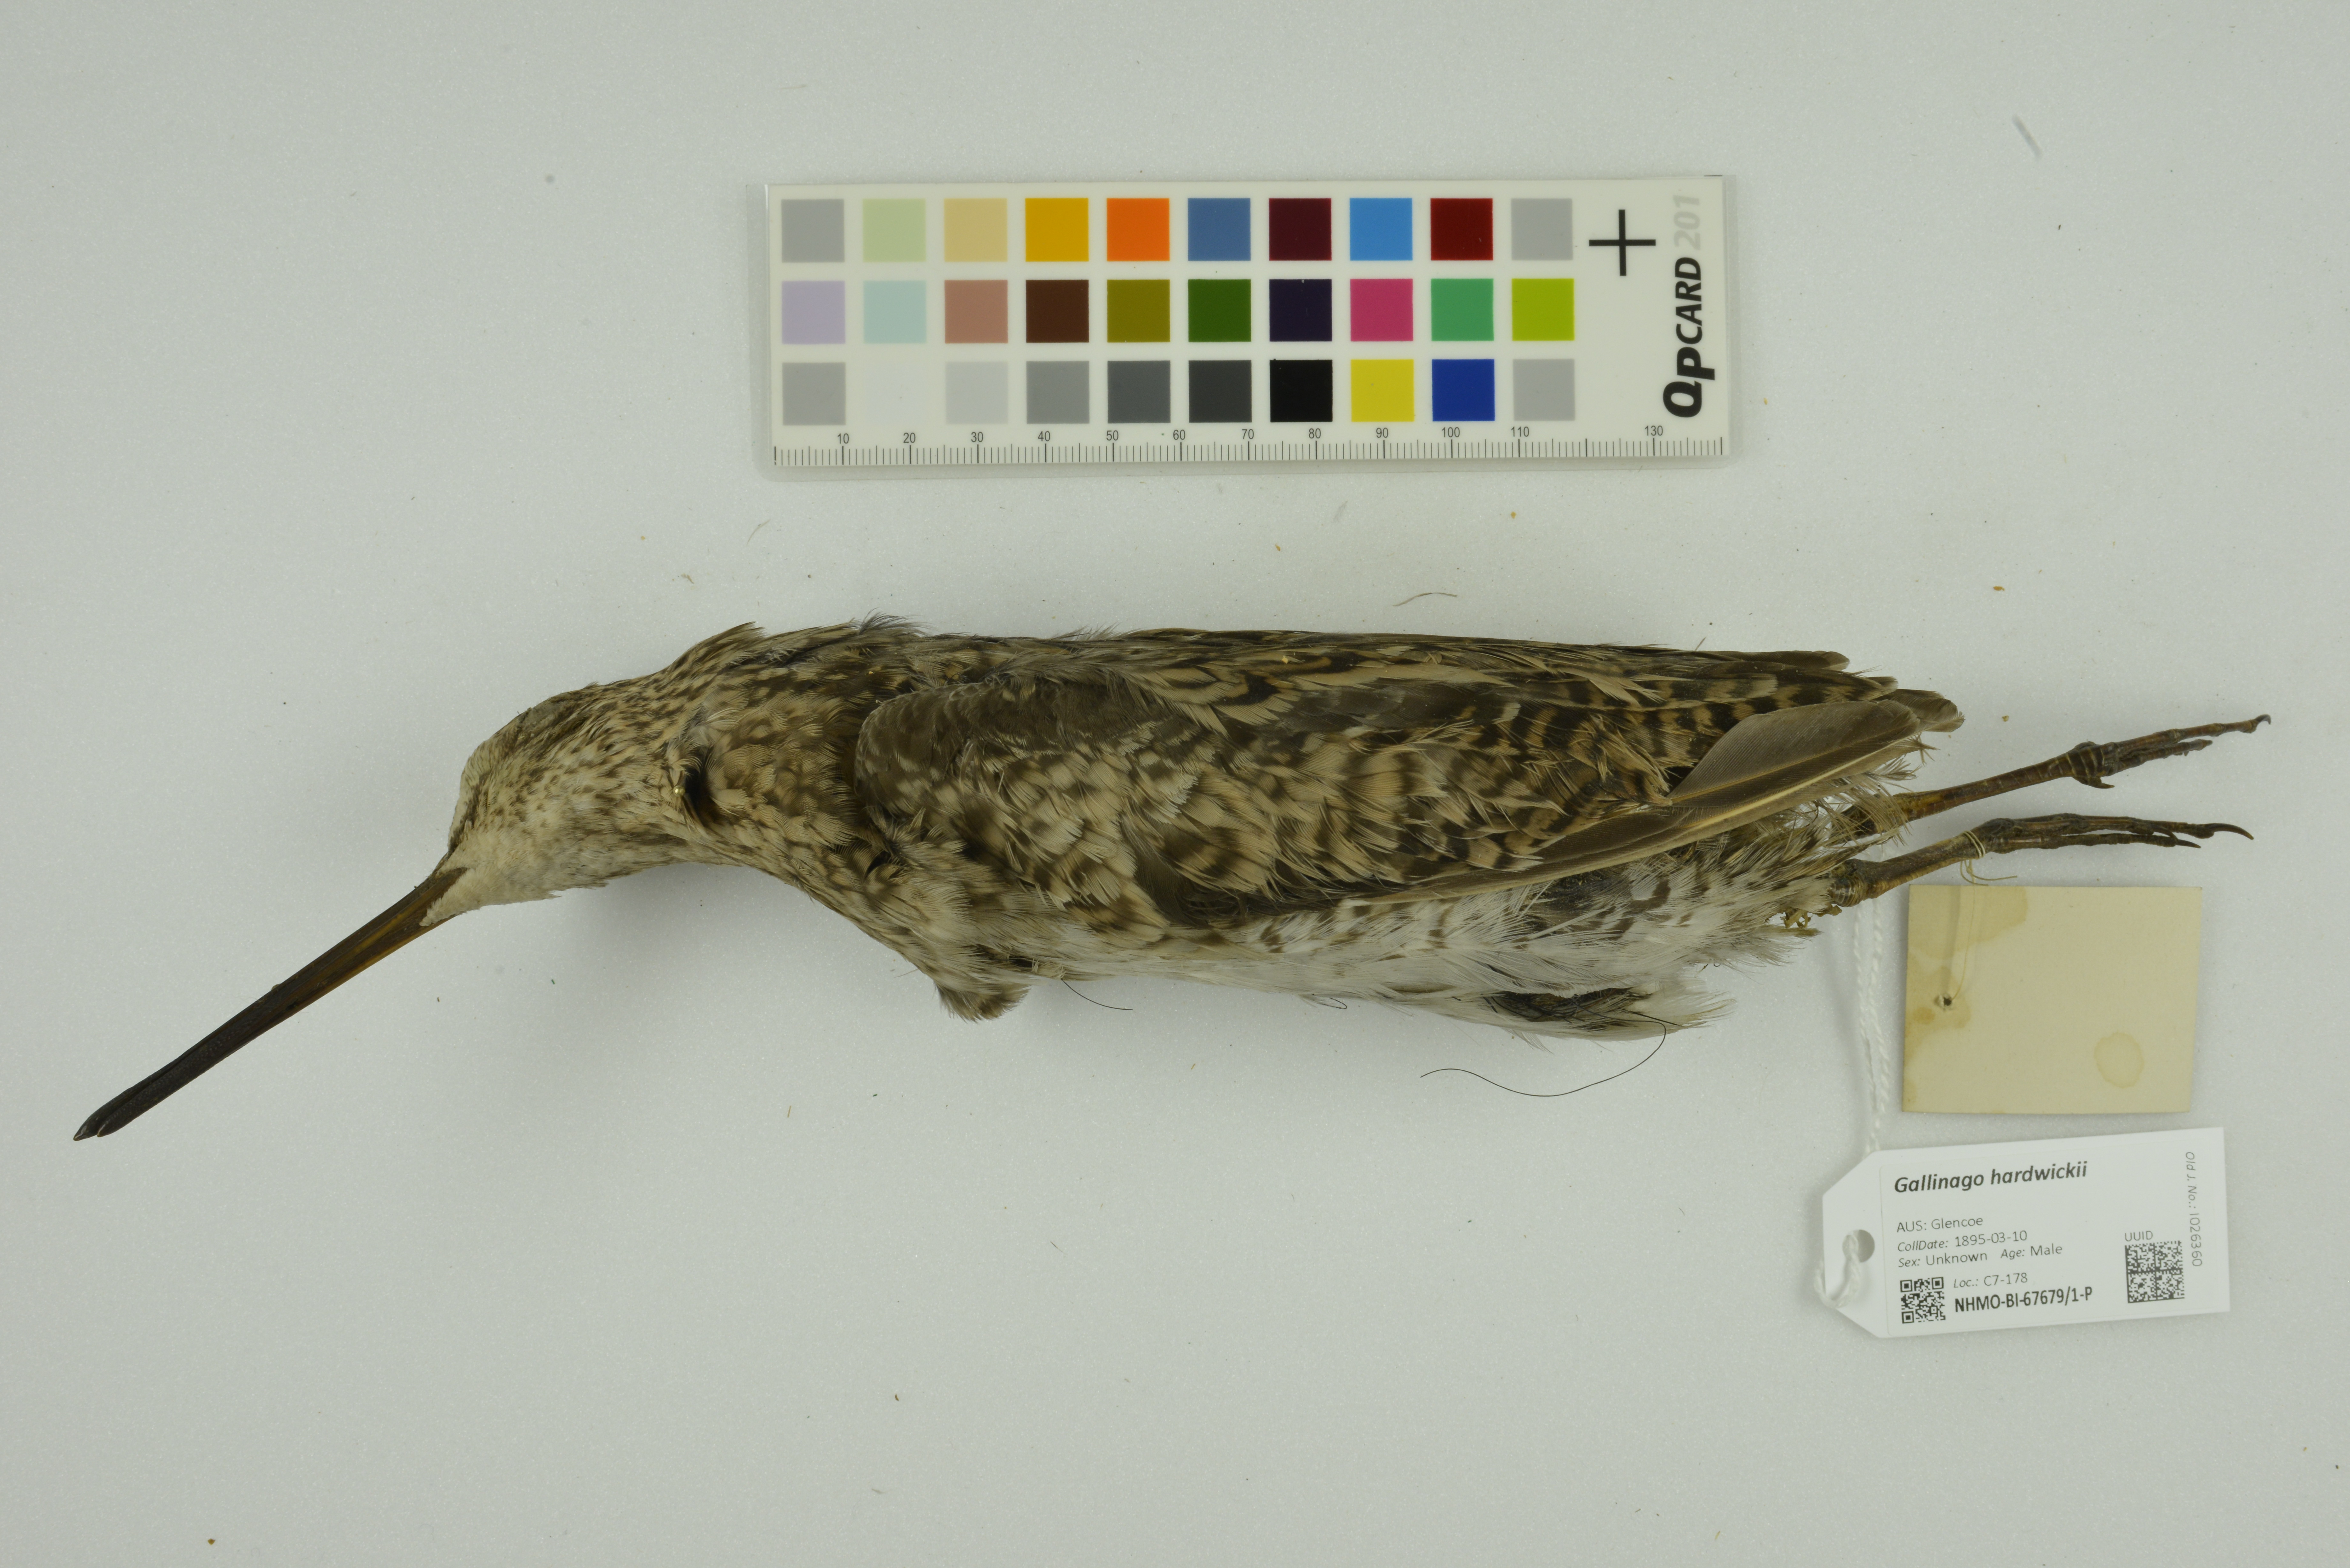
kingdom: Animalia
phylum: Chordata
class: Aves
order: Charadriiformes
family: Scolopacidae
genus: Gallinago
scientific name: Gallinago hardwickii
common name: Latham's snipe
